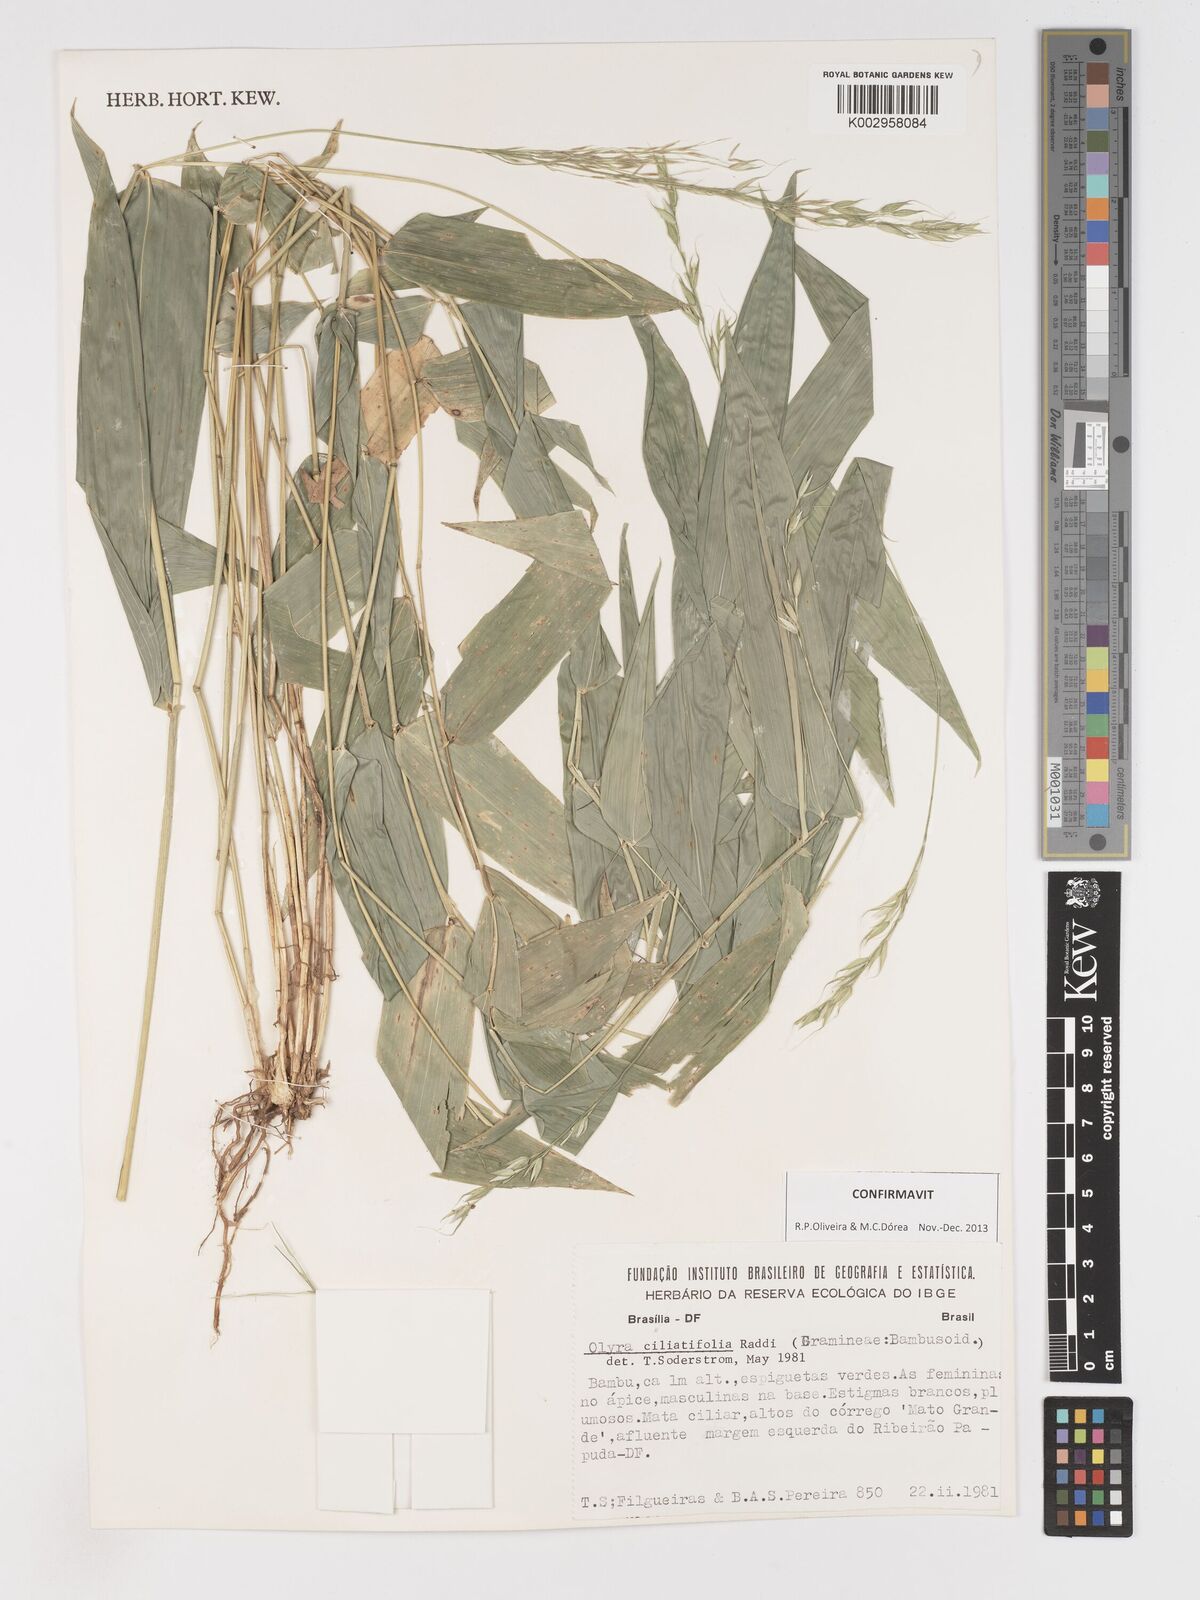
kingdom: Plantae
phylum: Tracheophyta
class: Liliopsida
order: Poales
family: Poaceae
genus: Olyra
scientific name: Olyra ciliatifolia
